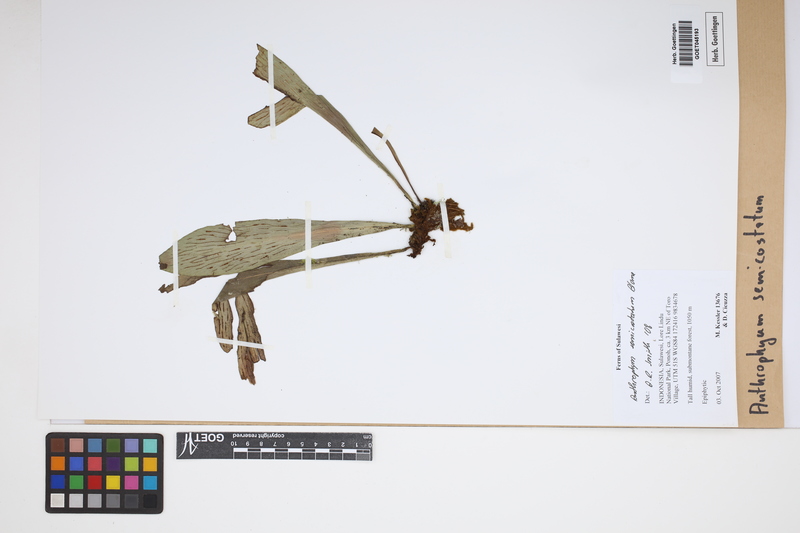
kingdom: Plantae
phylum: Tracheophyta
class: Polypodiopsida
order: Polypodiales
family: Pteridaceae
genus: Antrophyum
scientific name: Antrophyum semicostatum
